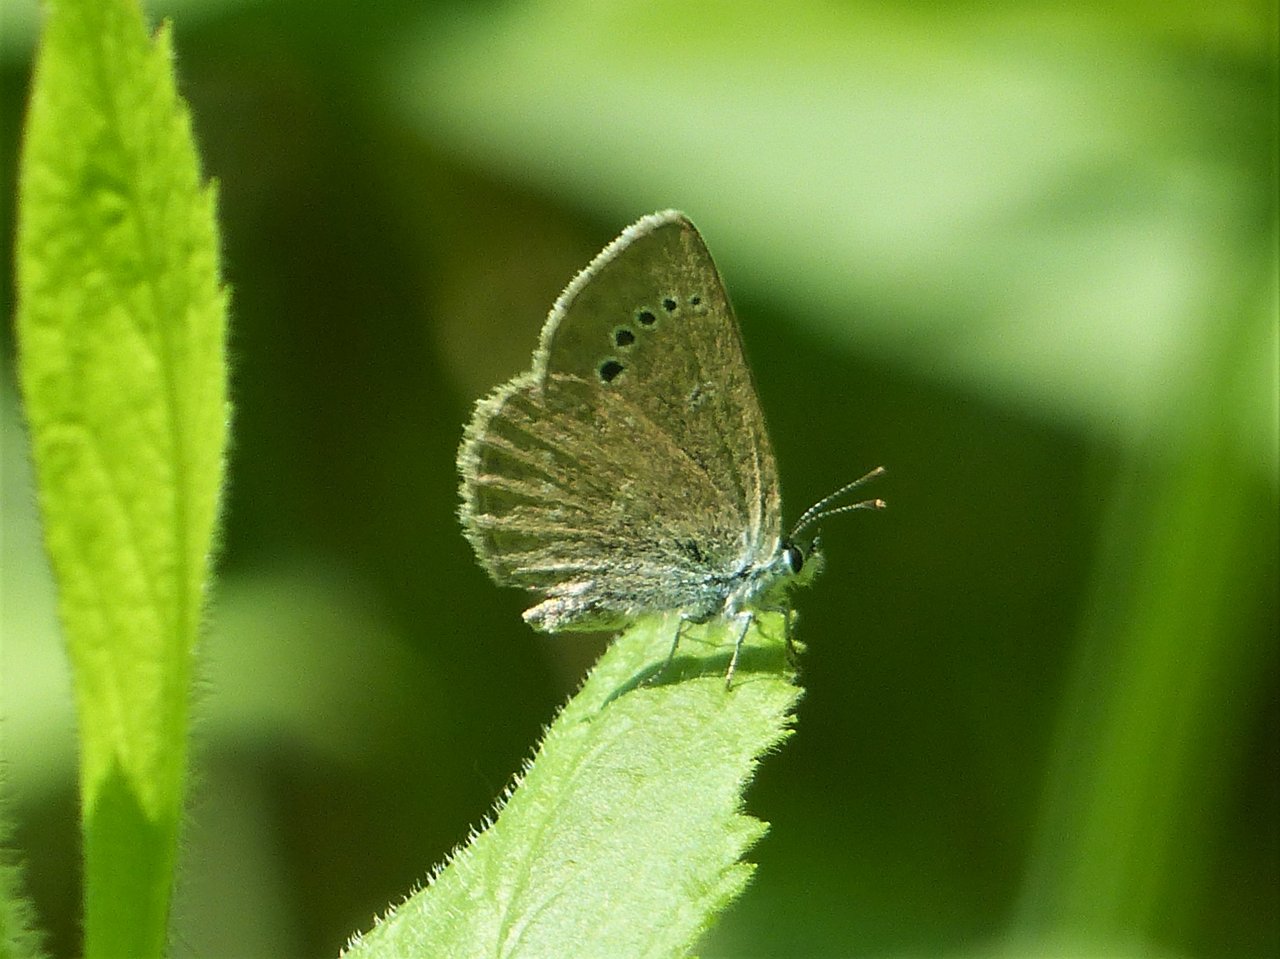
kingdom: Animalia
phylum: Arthropoda
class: Insecta
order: Lepidoptera
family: Lycaenidae
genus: Glaucopsyche
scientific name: Glaucopsyche lygdamus
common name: Silvery Blue
